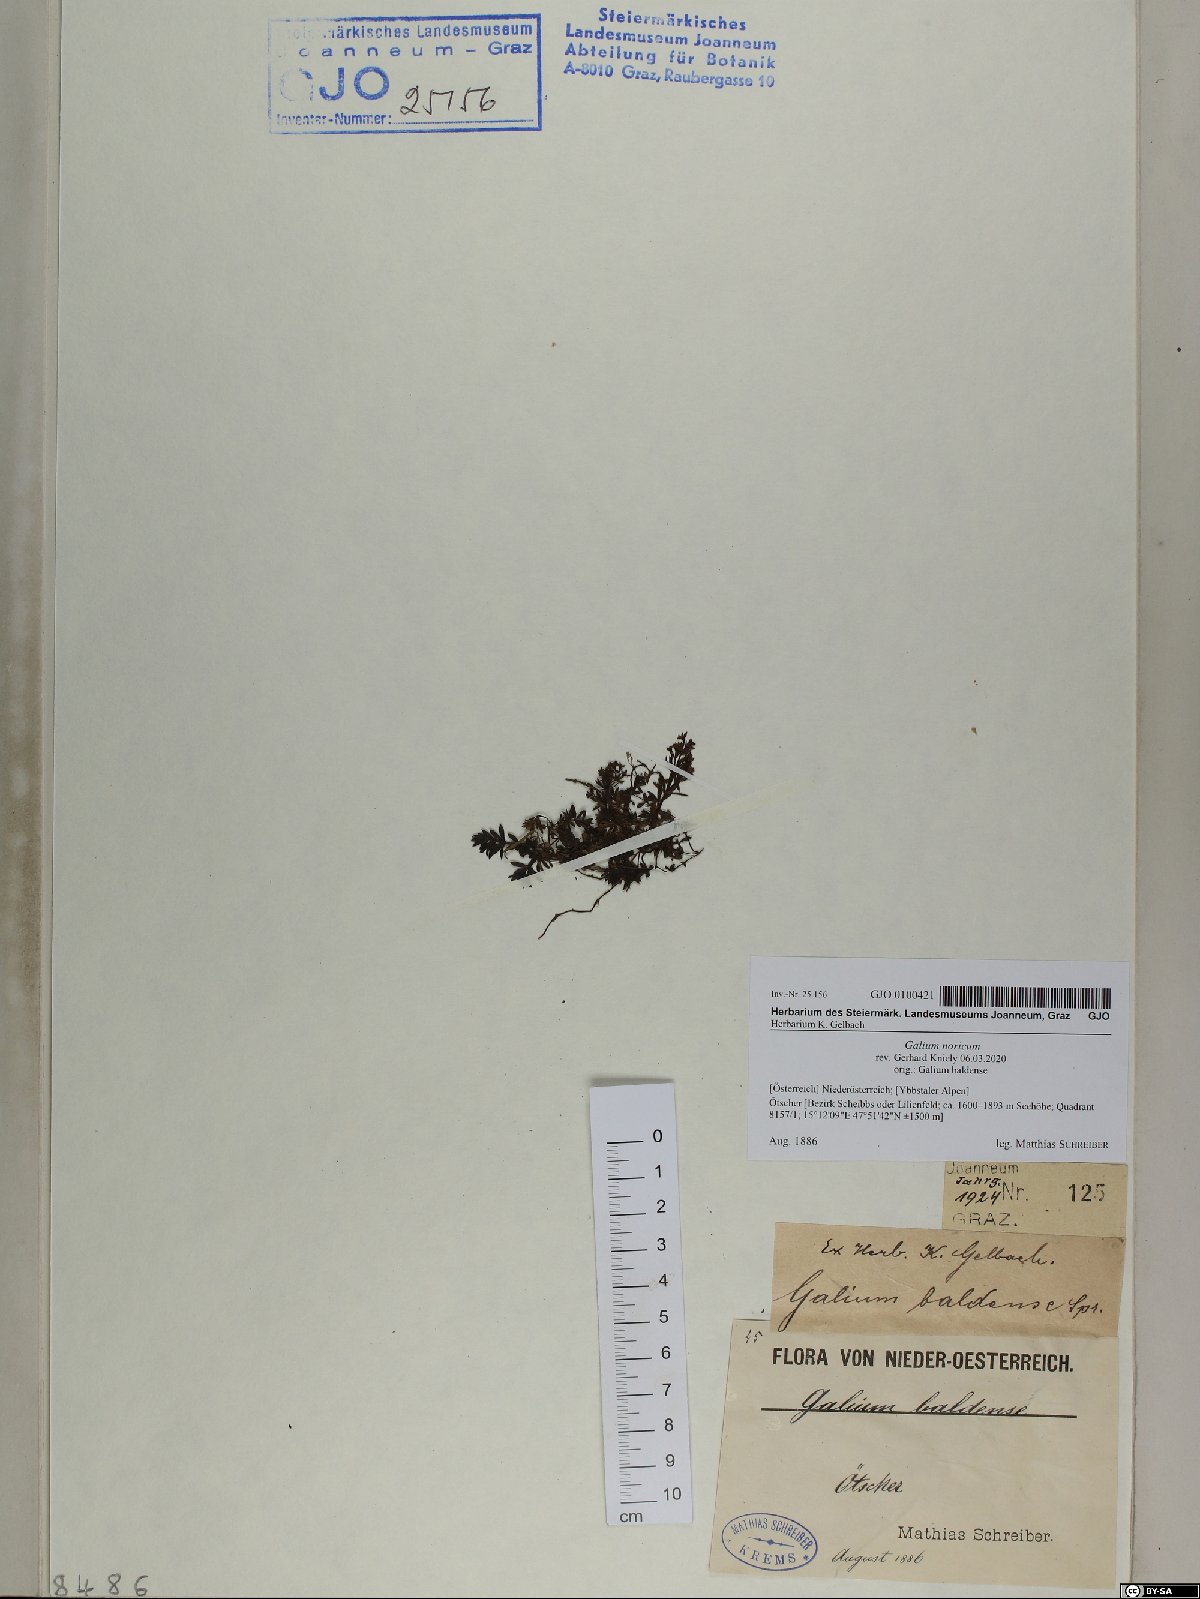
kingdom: Plantae
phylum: Tracheophyta
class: Magnoliopsida
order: Gentianales
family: Rubiaceae
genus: Galium
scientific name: Galium noricum
